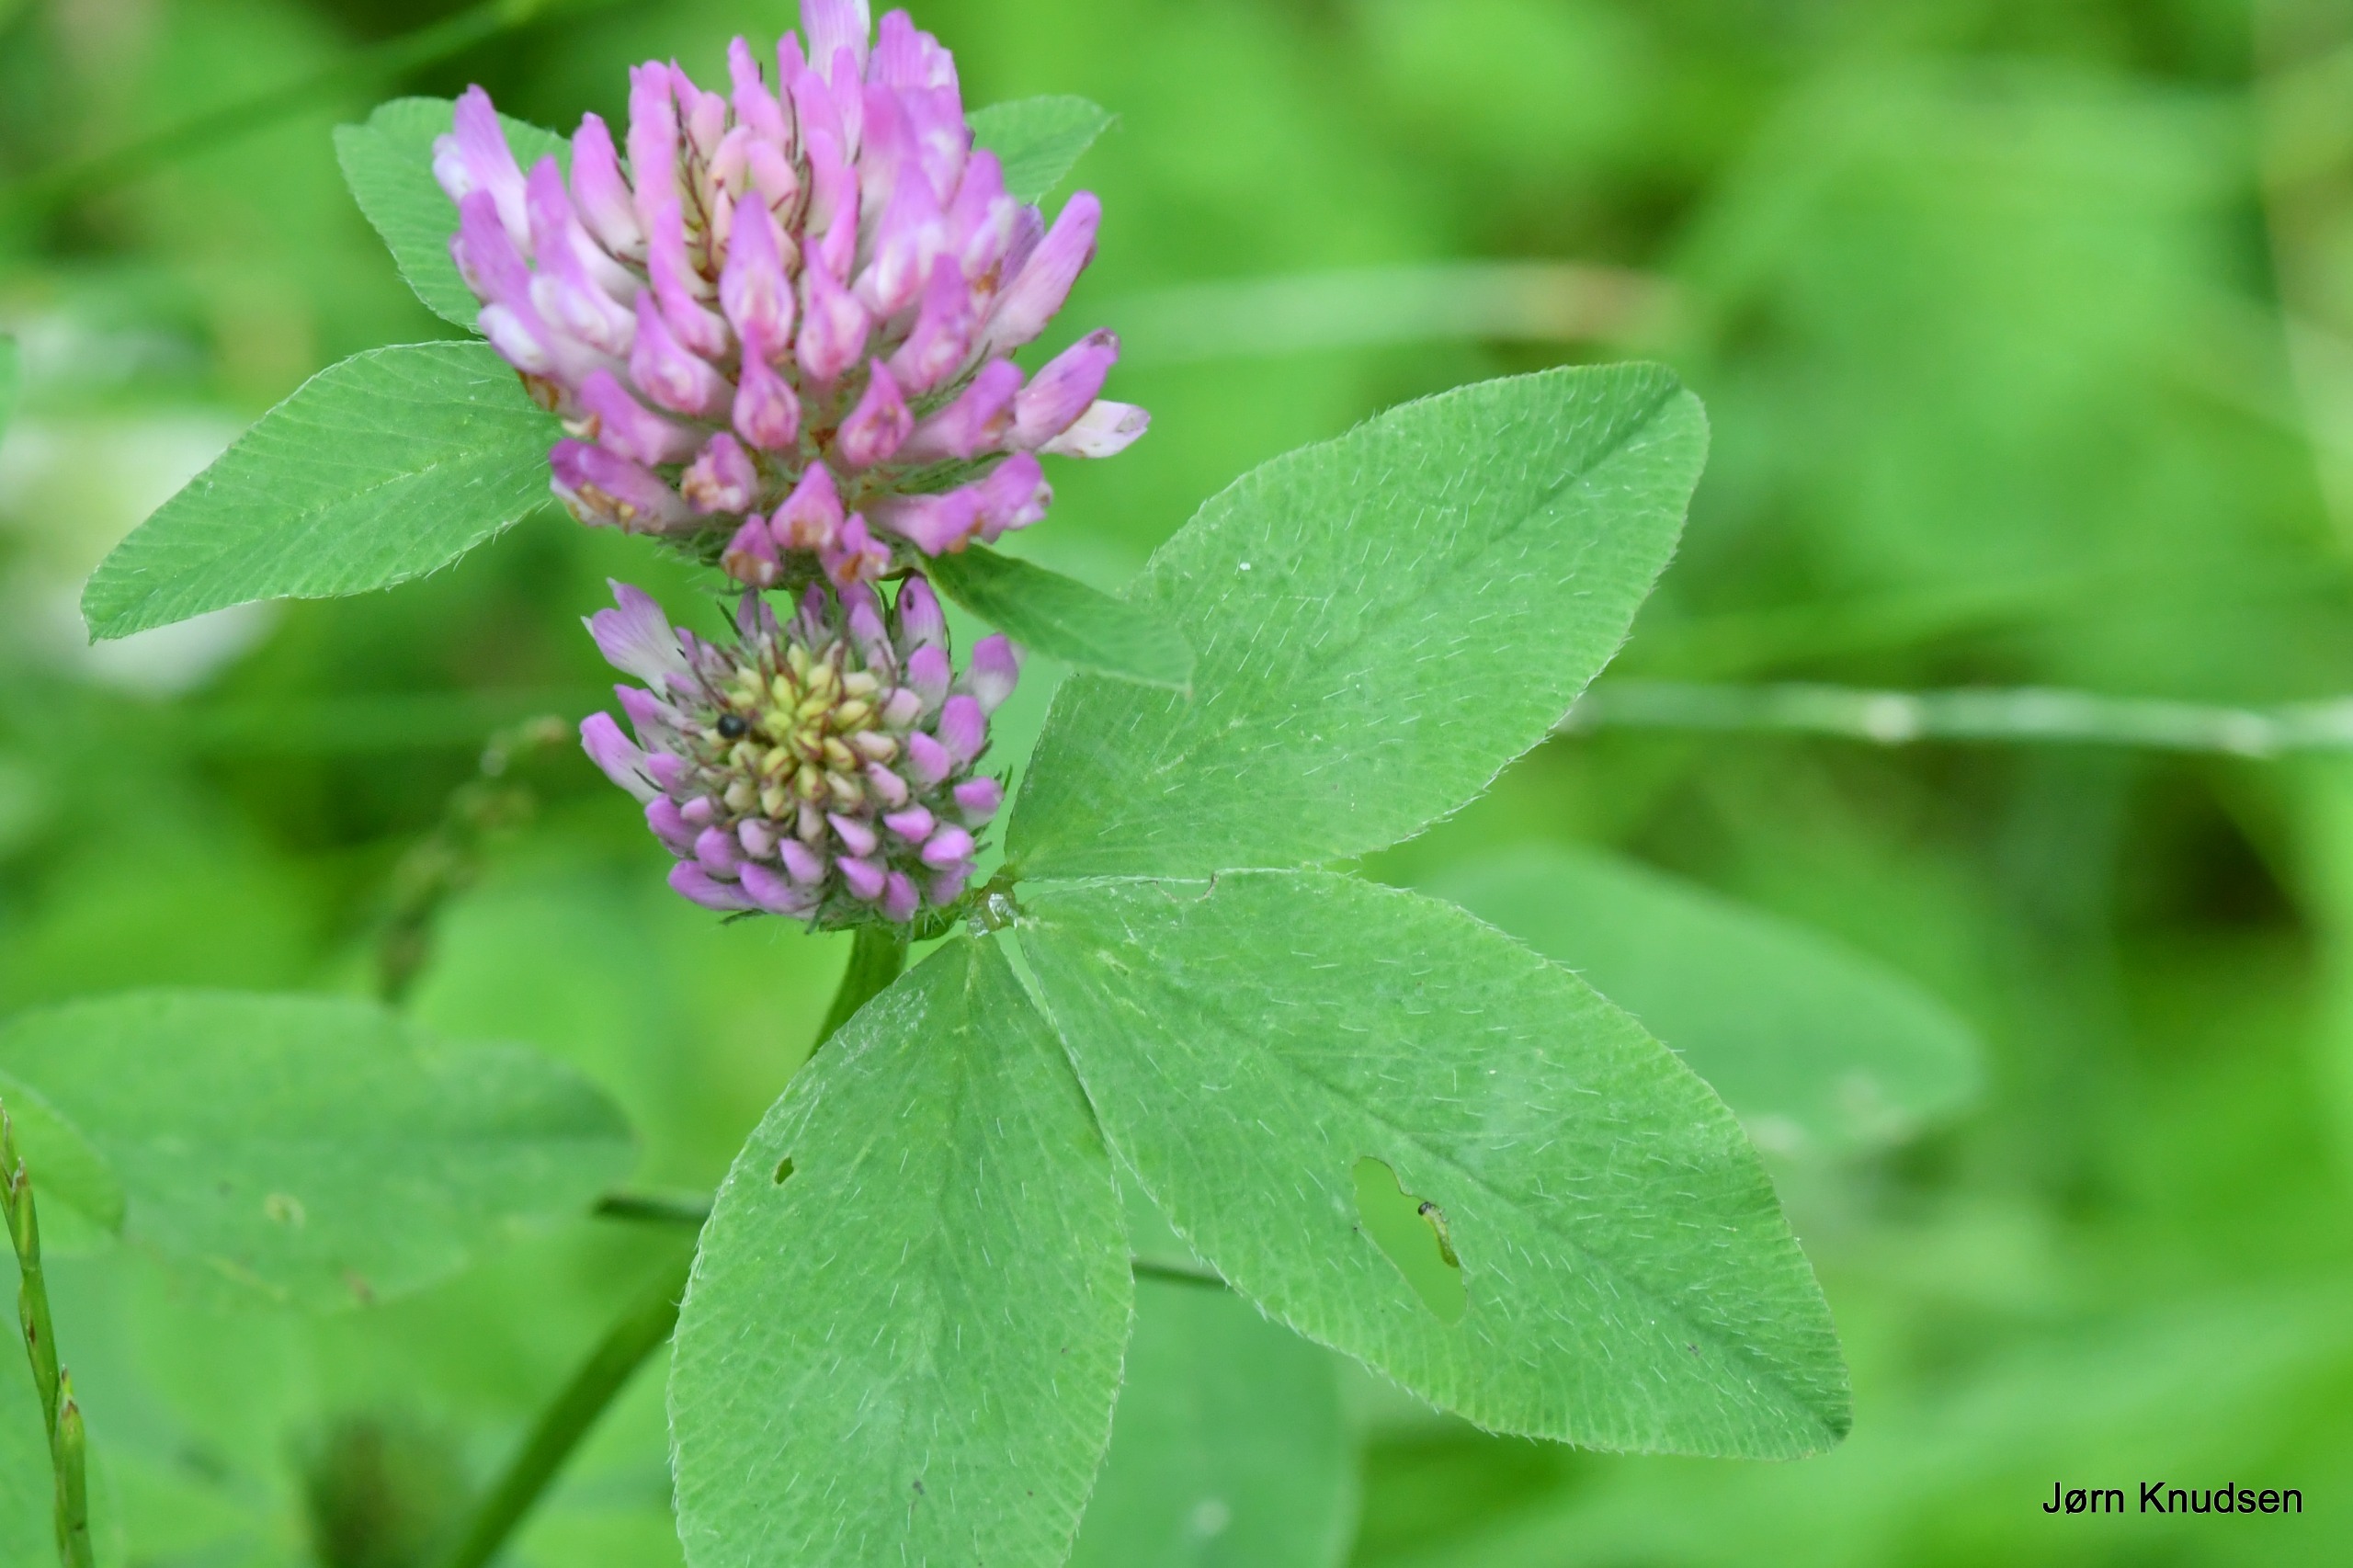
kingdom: Plantae
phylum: Tracheophyta
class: Magnoliopsida
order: Fabales
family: Fabaceae
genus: Trifolium
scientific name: Trifolium pratense
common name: Rød-kløver
